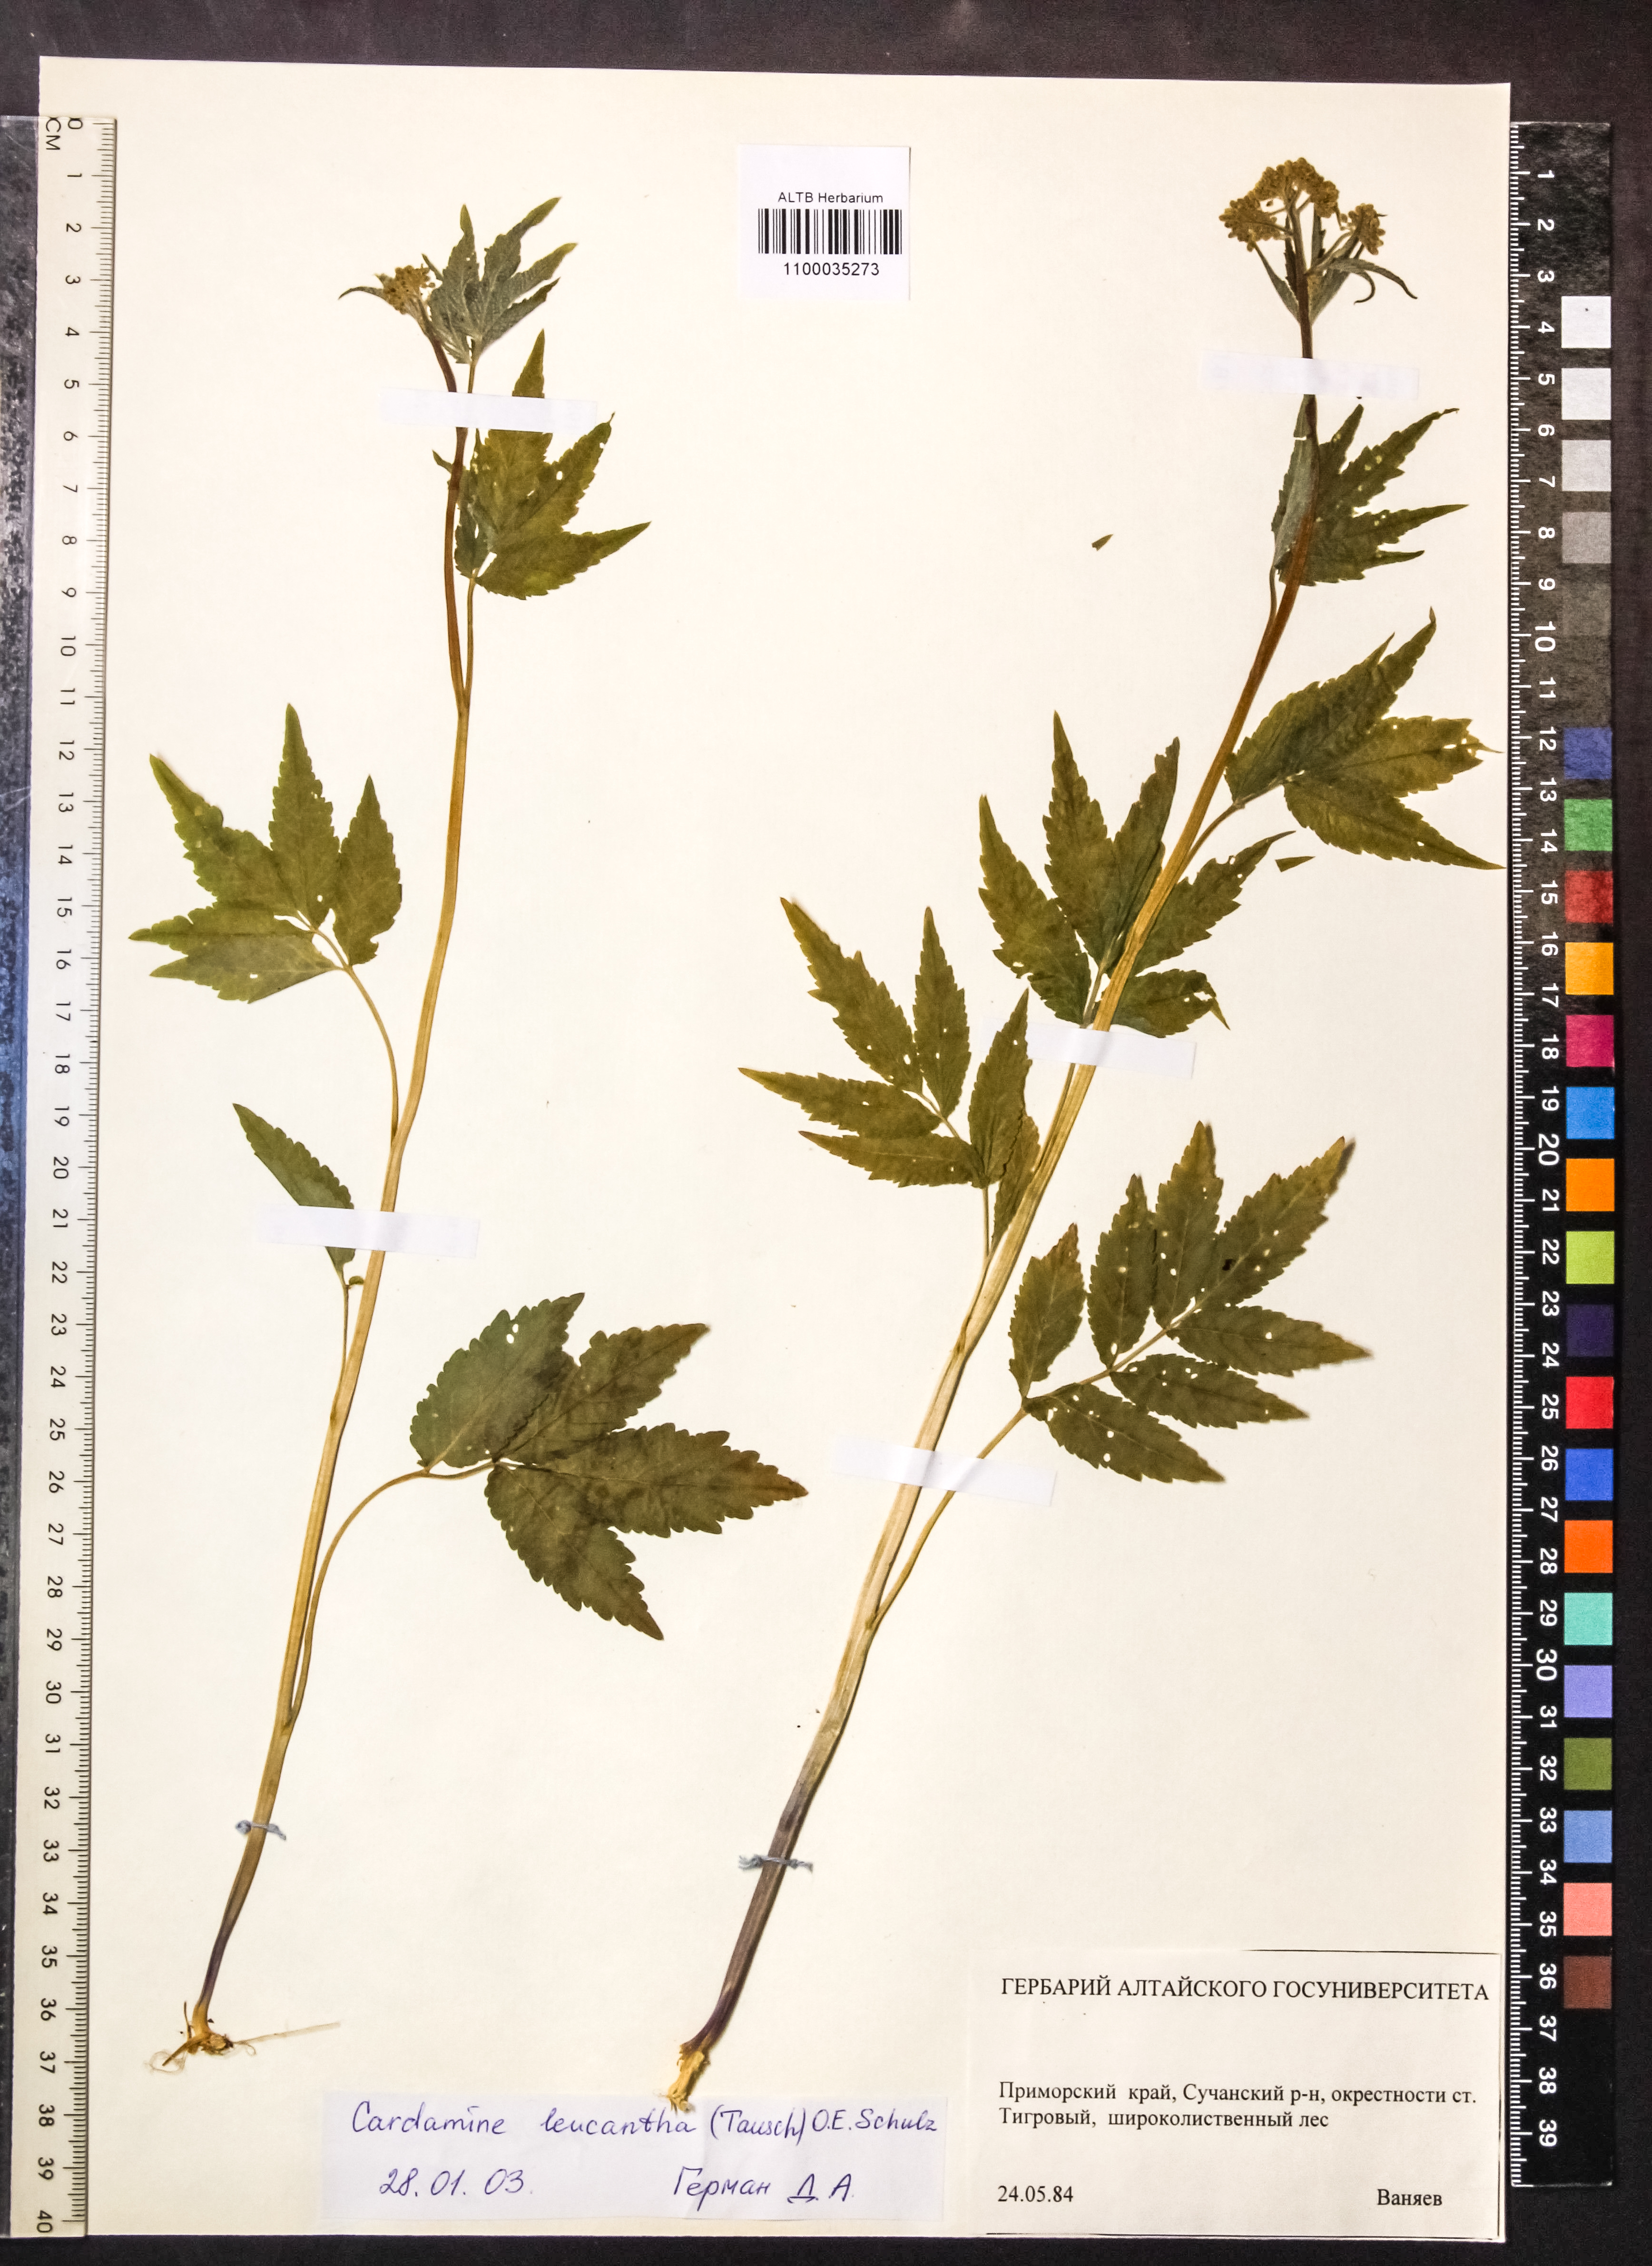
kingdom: Plantae
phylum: Tracheophyta
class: Magnoliopsida
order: Brassicales
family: Brassicaceae
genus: Cardamine
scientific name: Cardamine leucantha
